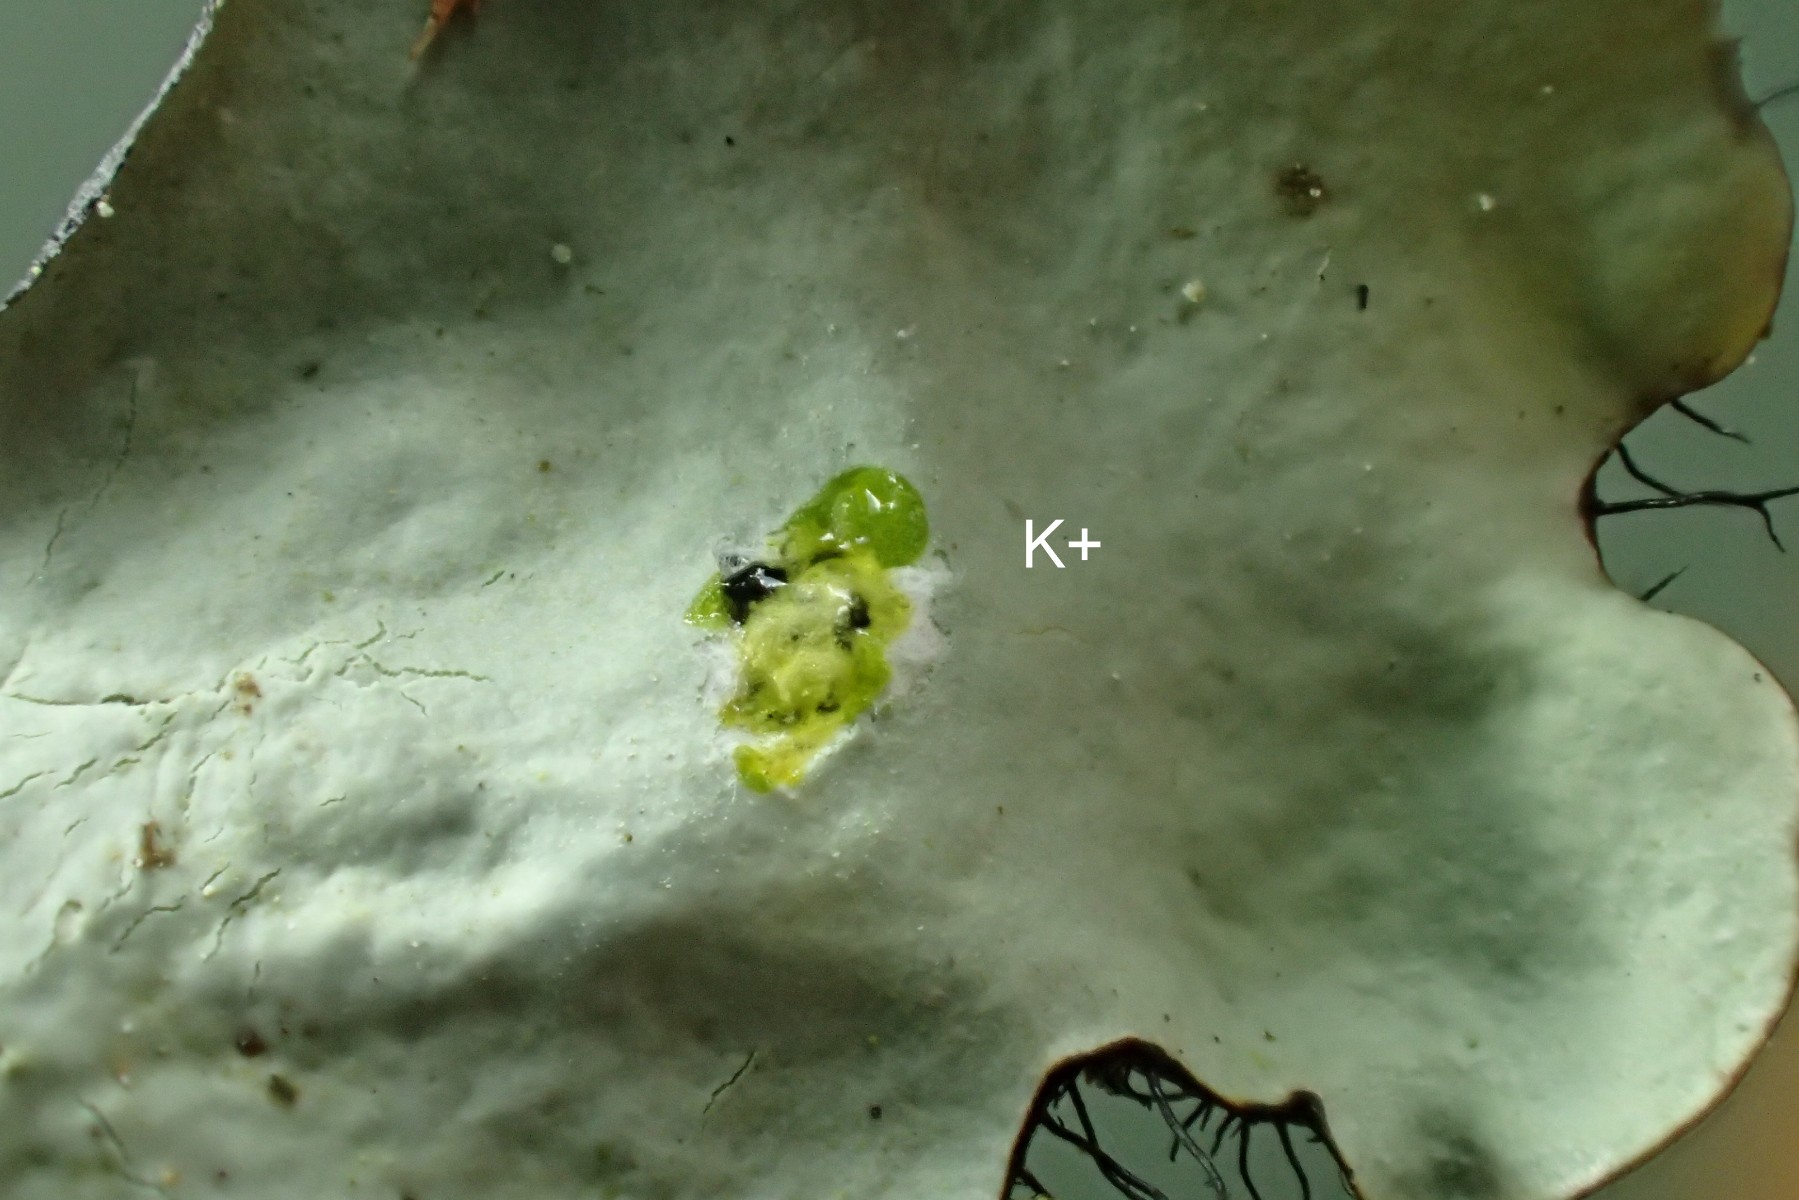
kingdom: Fungi
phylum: Ascomycota
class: Lecanoromycetes
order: Lecanorales
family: Parmeliaceae
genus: Parmotrema
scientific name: Parmotrema perlatum
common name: trådet skållav
